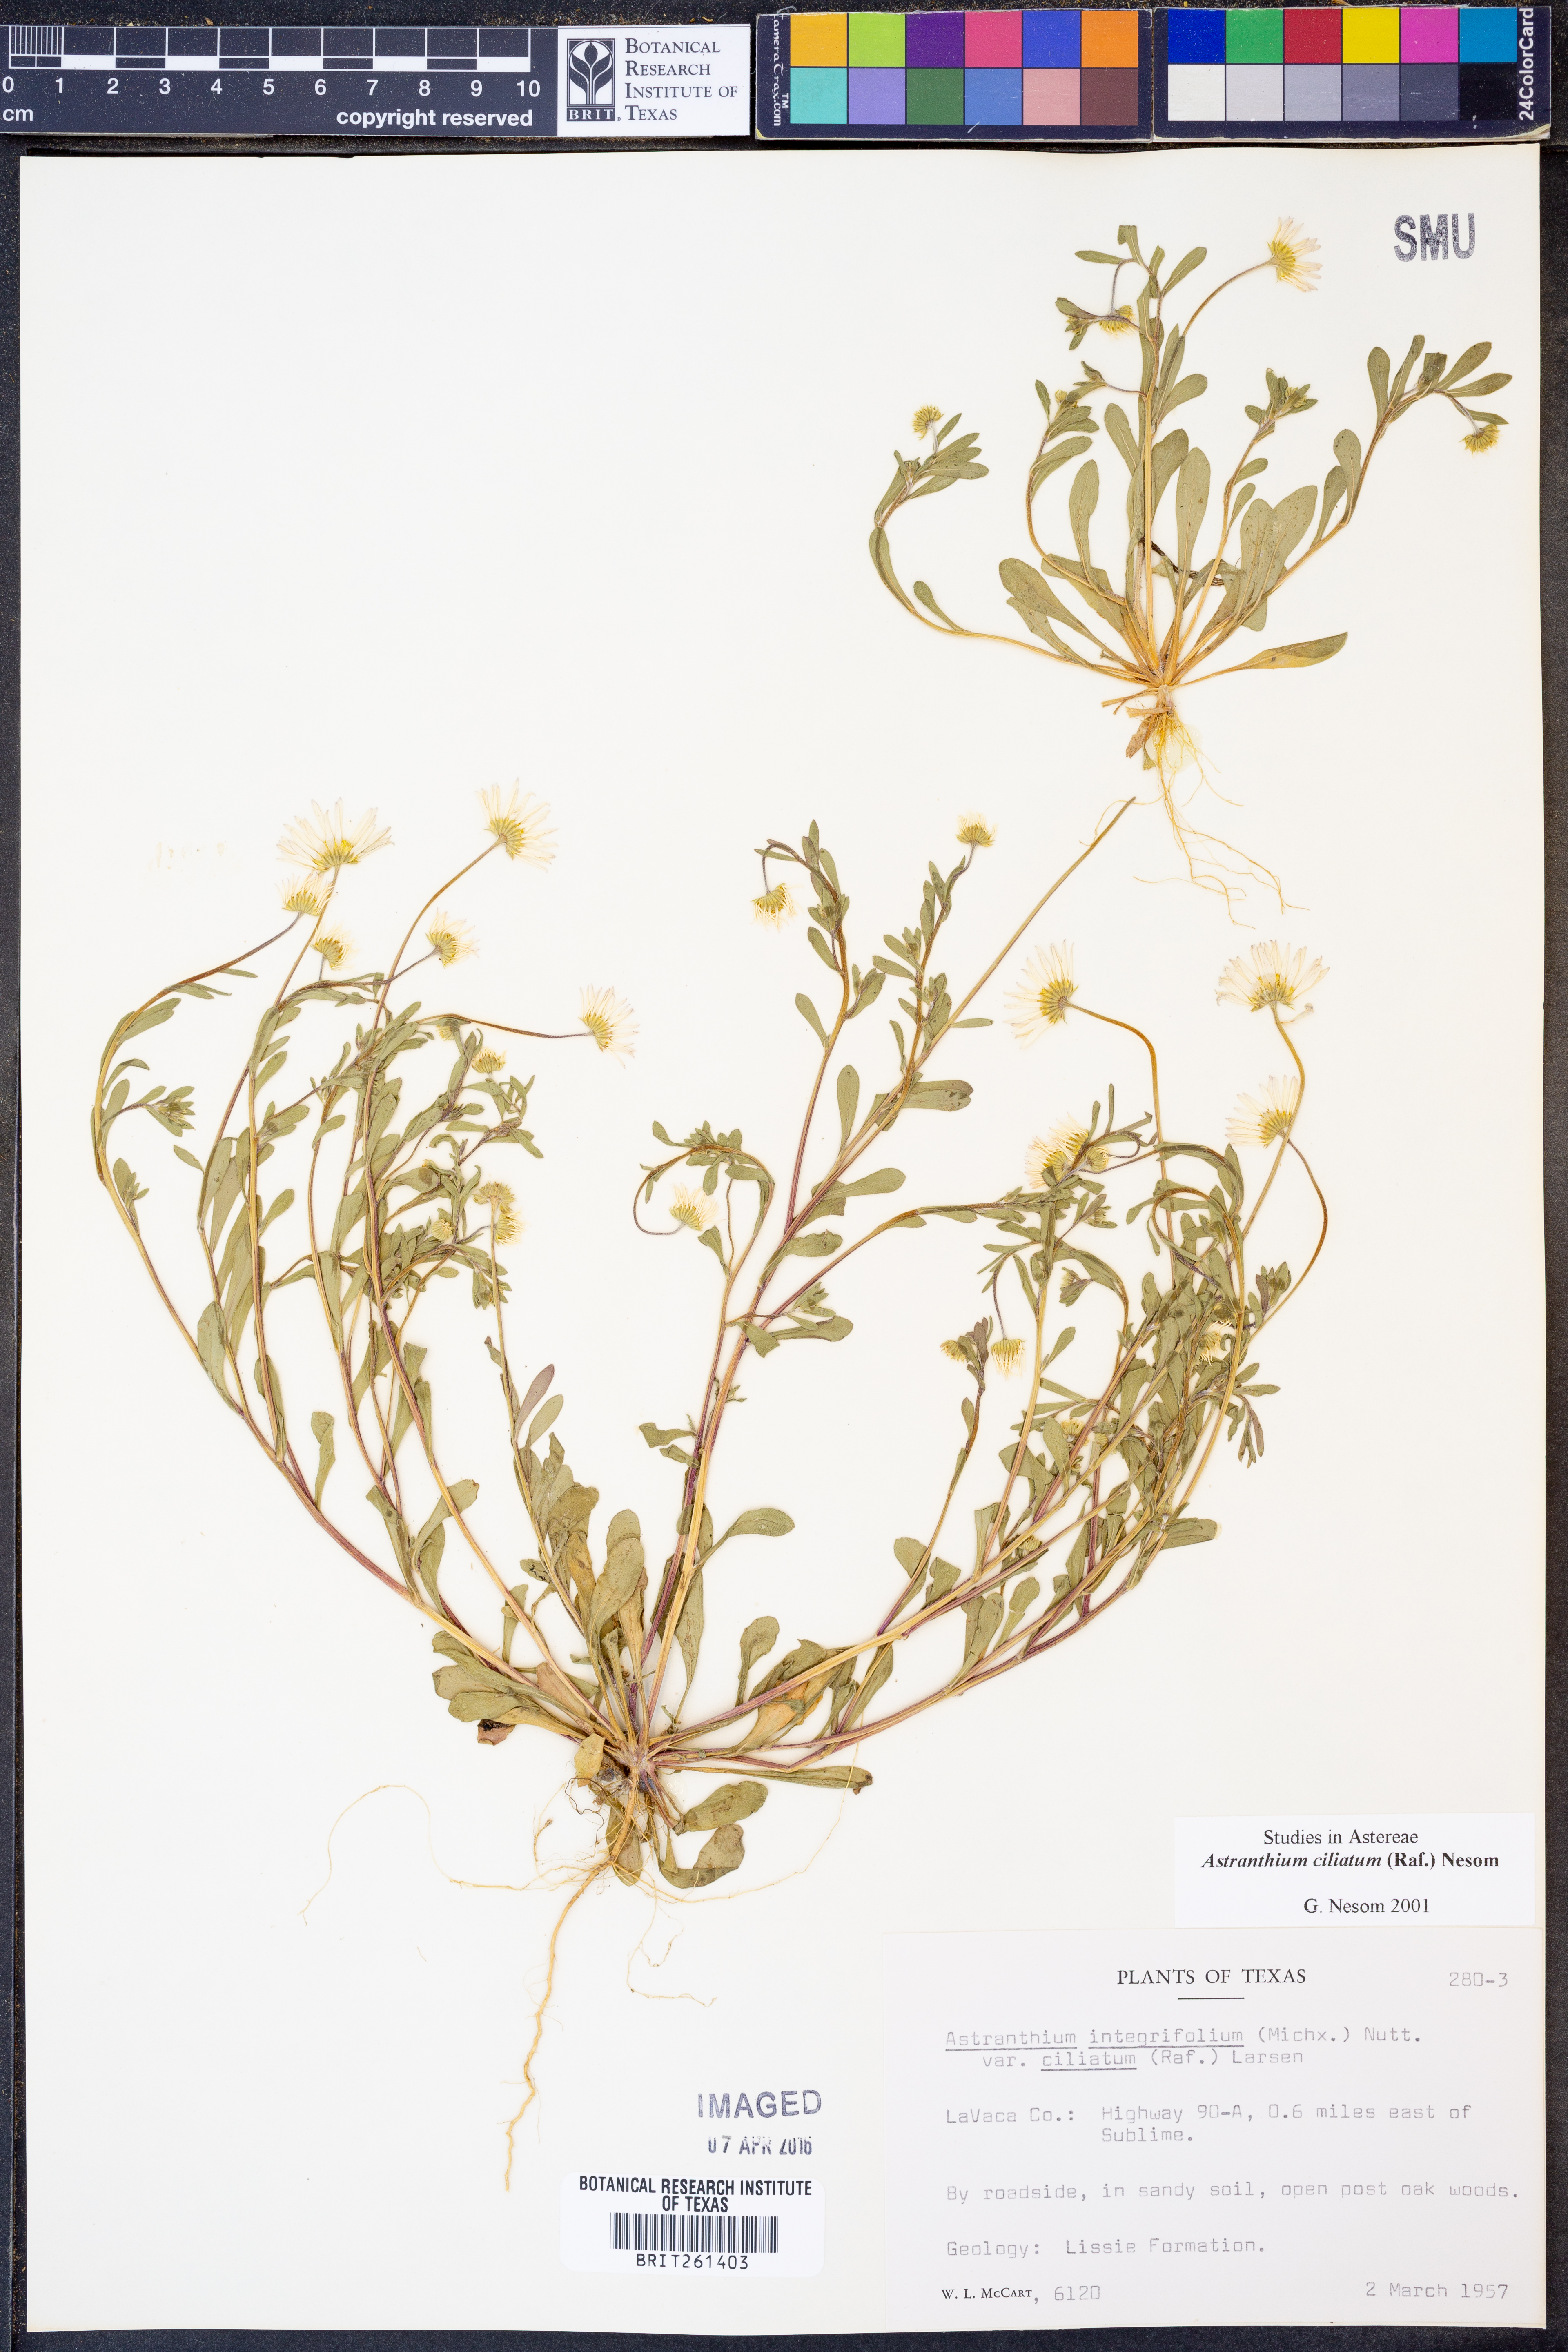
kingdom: Plantae
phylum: Tracheophyta
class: Magnoliopsida
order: Asterales
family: Asteraceae
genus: Astranthium
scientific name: Astranthium ciliatum
